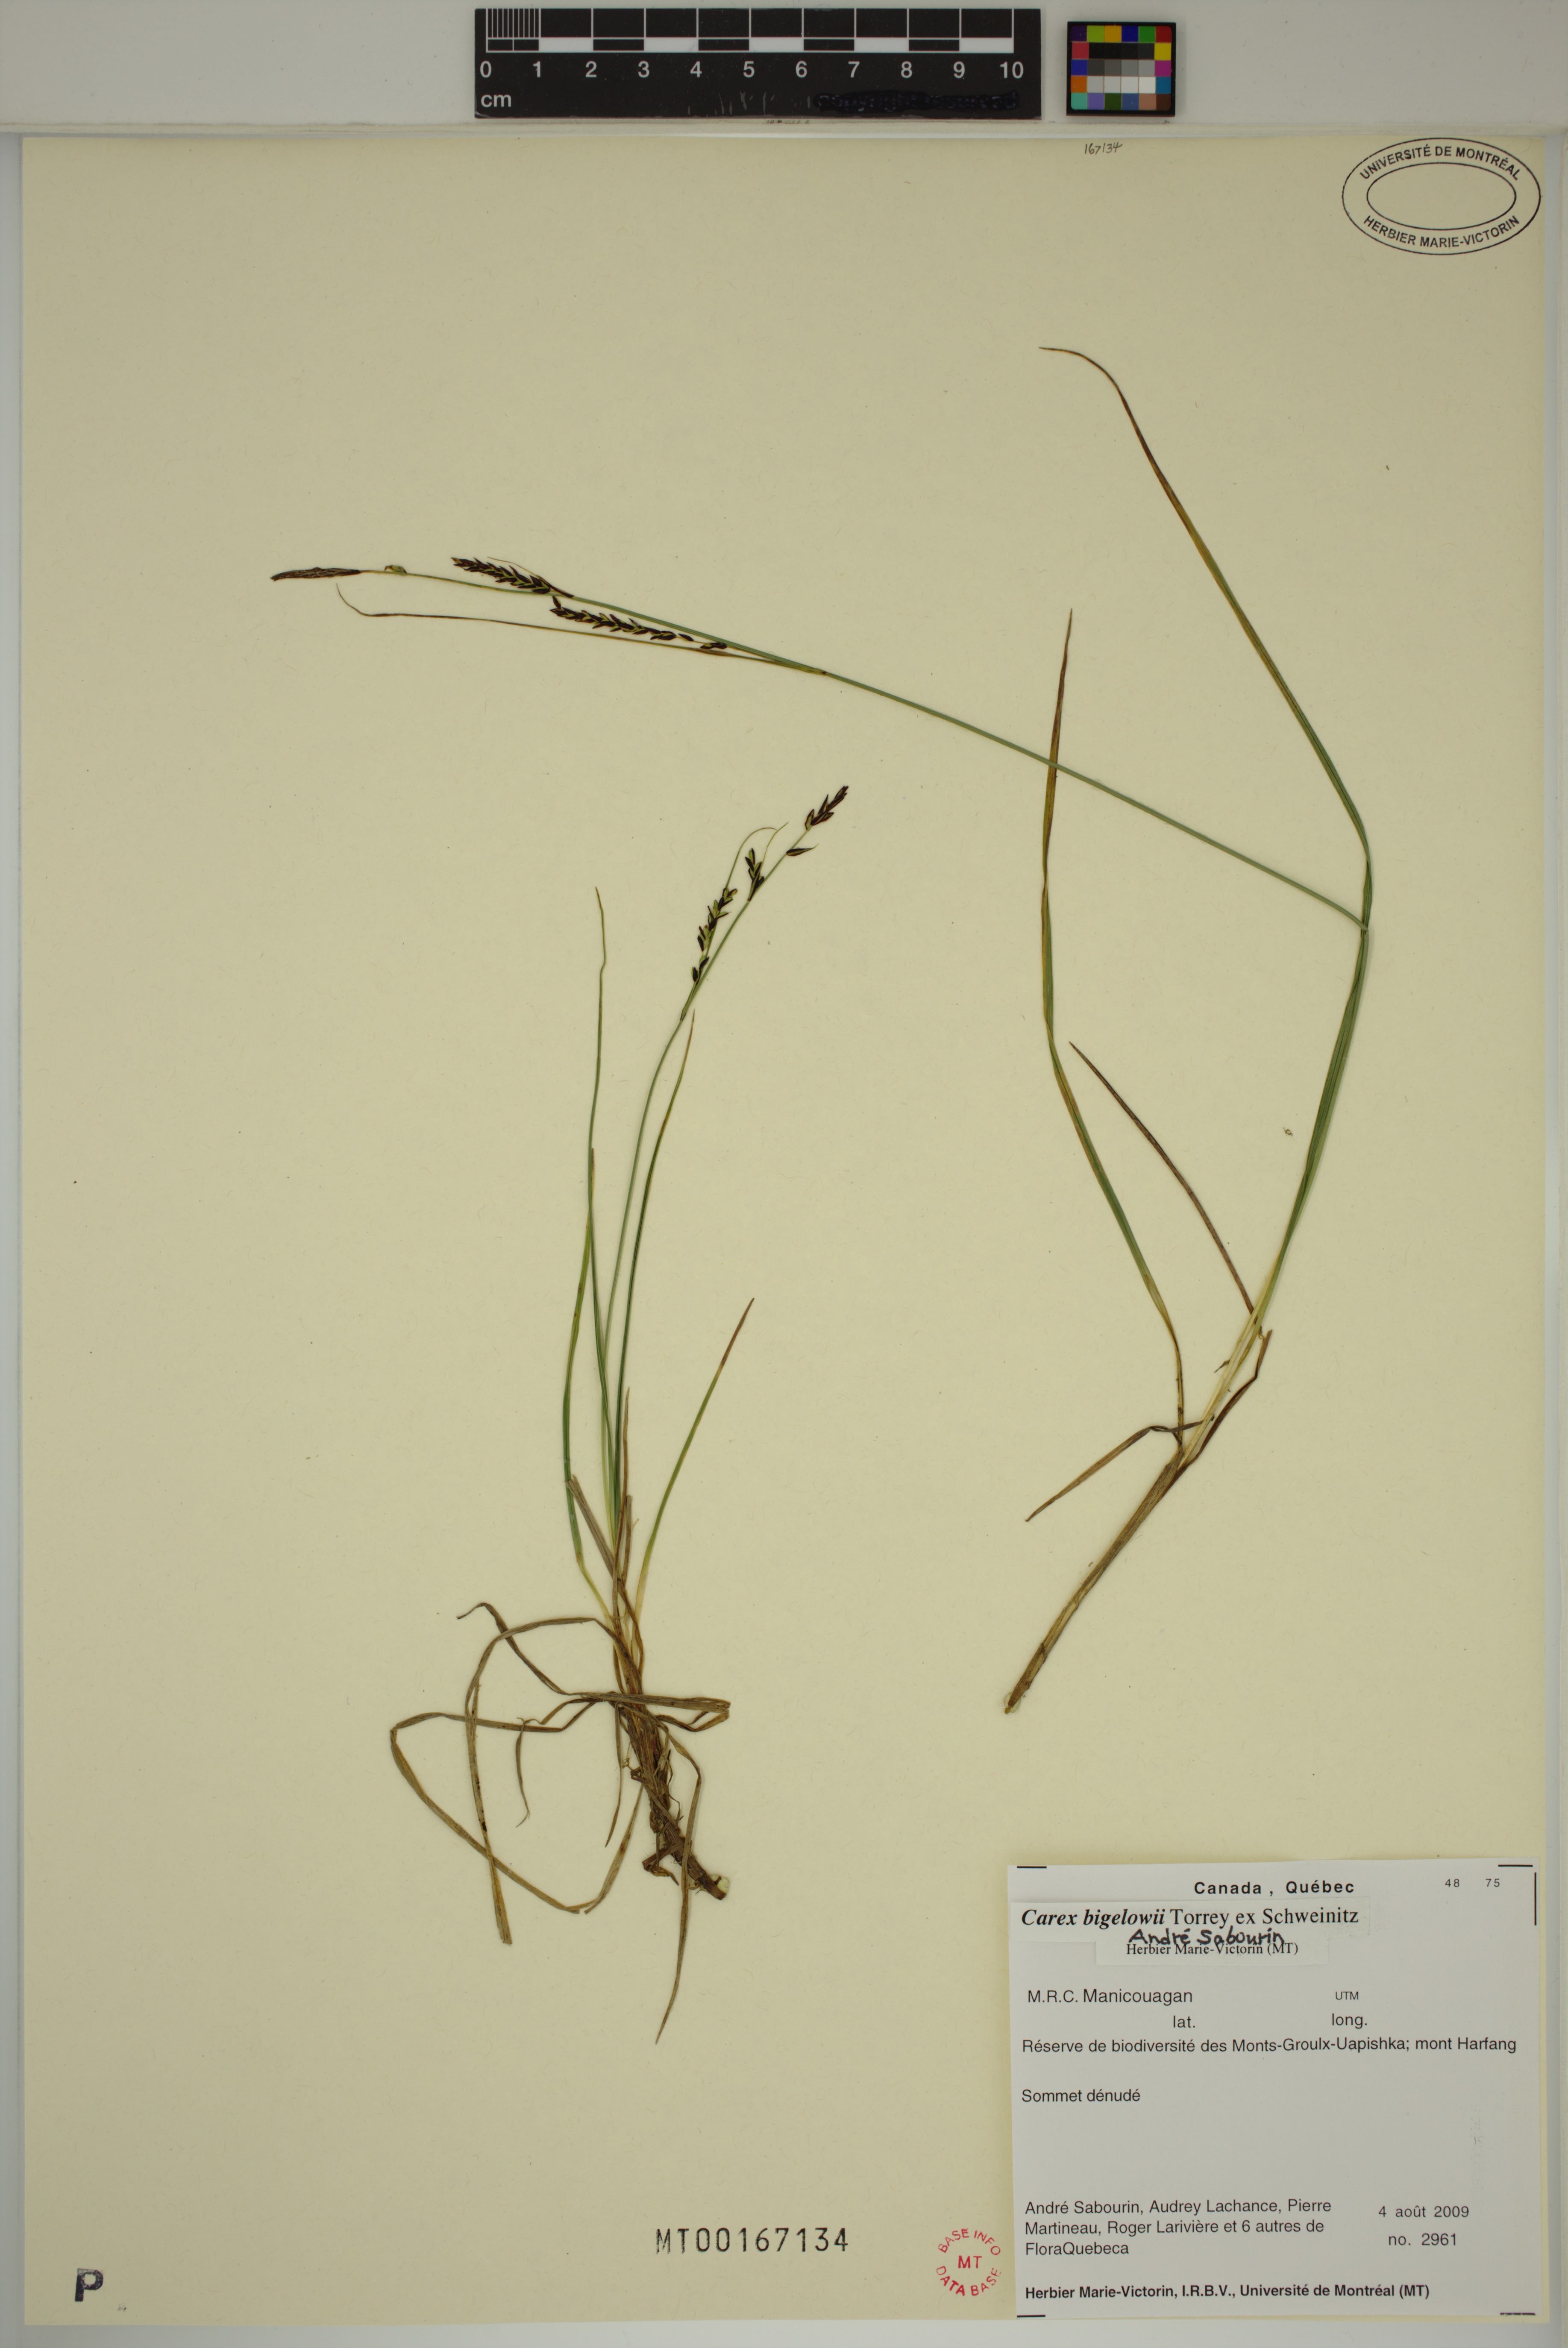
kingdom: Plantae
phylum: Tracheophyta
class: Liliopsida
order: Poales
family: Cyperaceae
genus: Carex
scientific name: Carex bigelowii
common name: Stiff sedge
